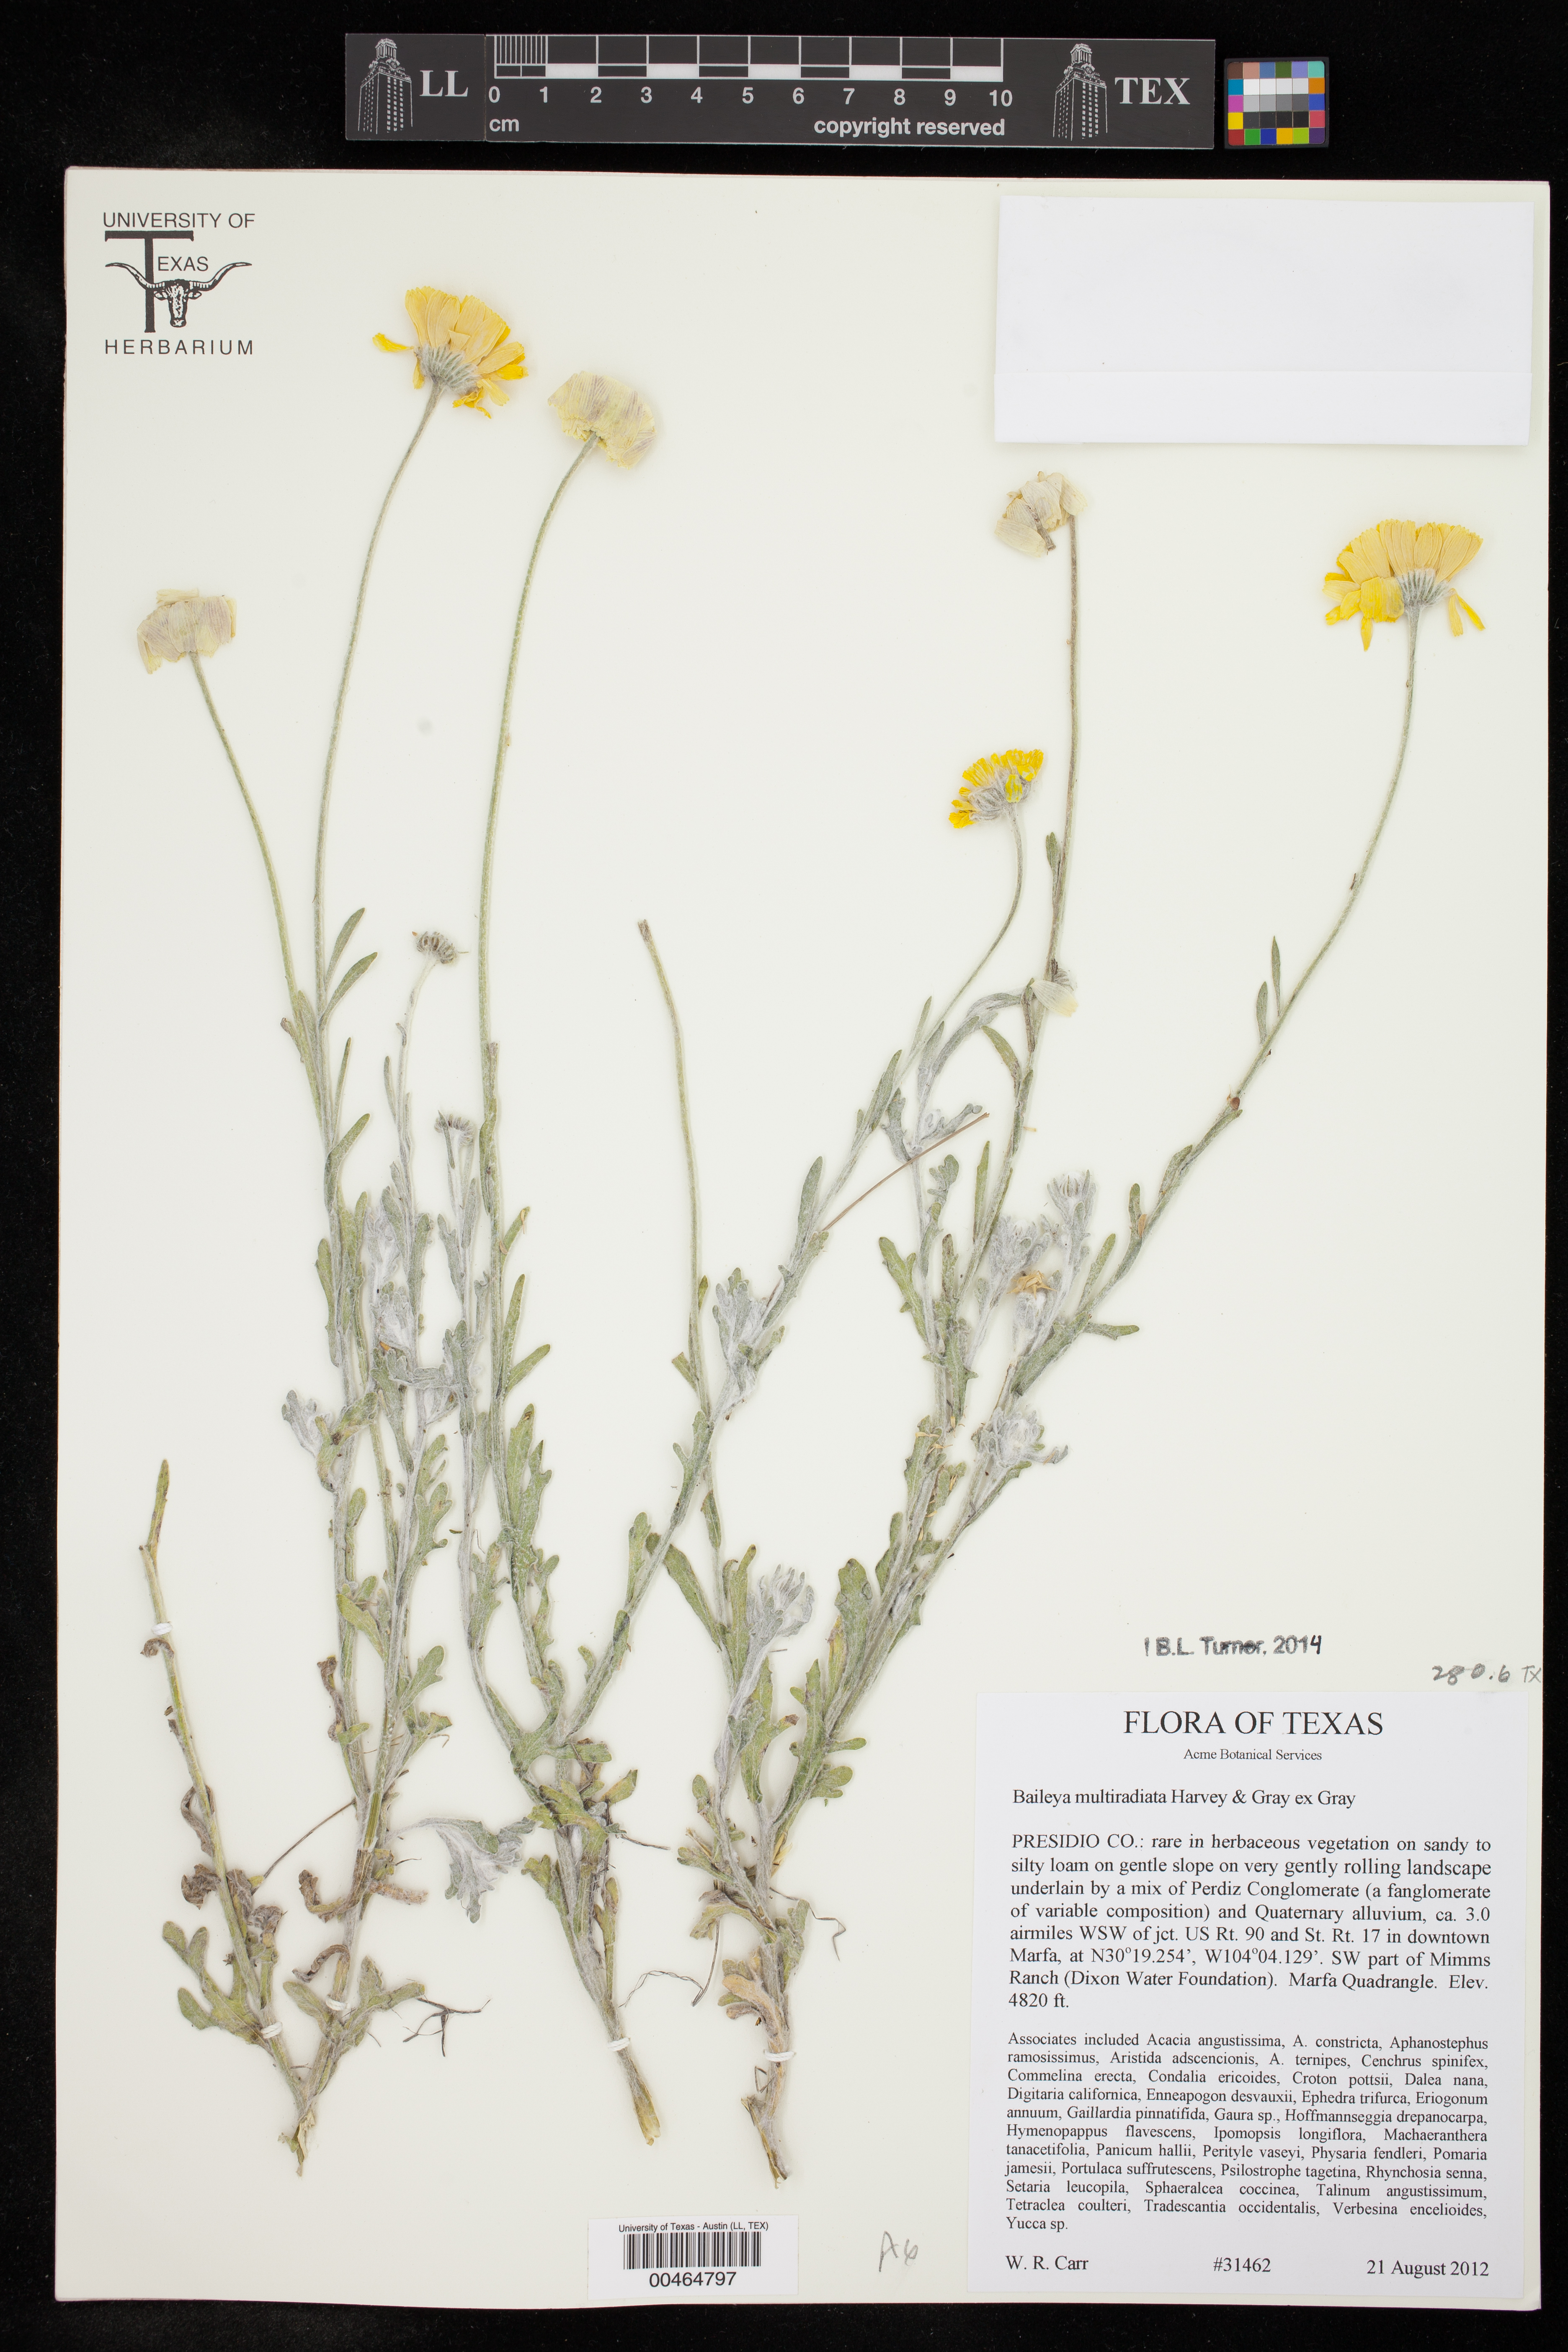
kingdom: Plantae
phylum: Tracheophyta
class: Magnoliopsida
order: Asterales
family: Asteraceae
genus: Baileya
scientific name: Baileya multiradiata
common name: Desert-marigold
